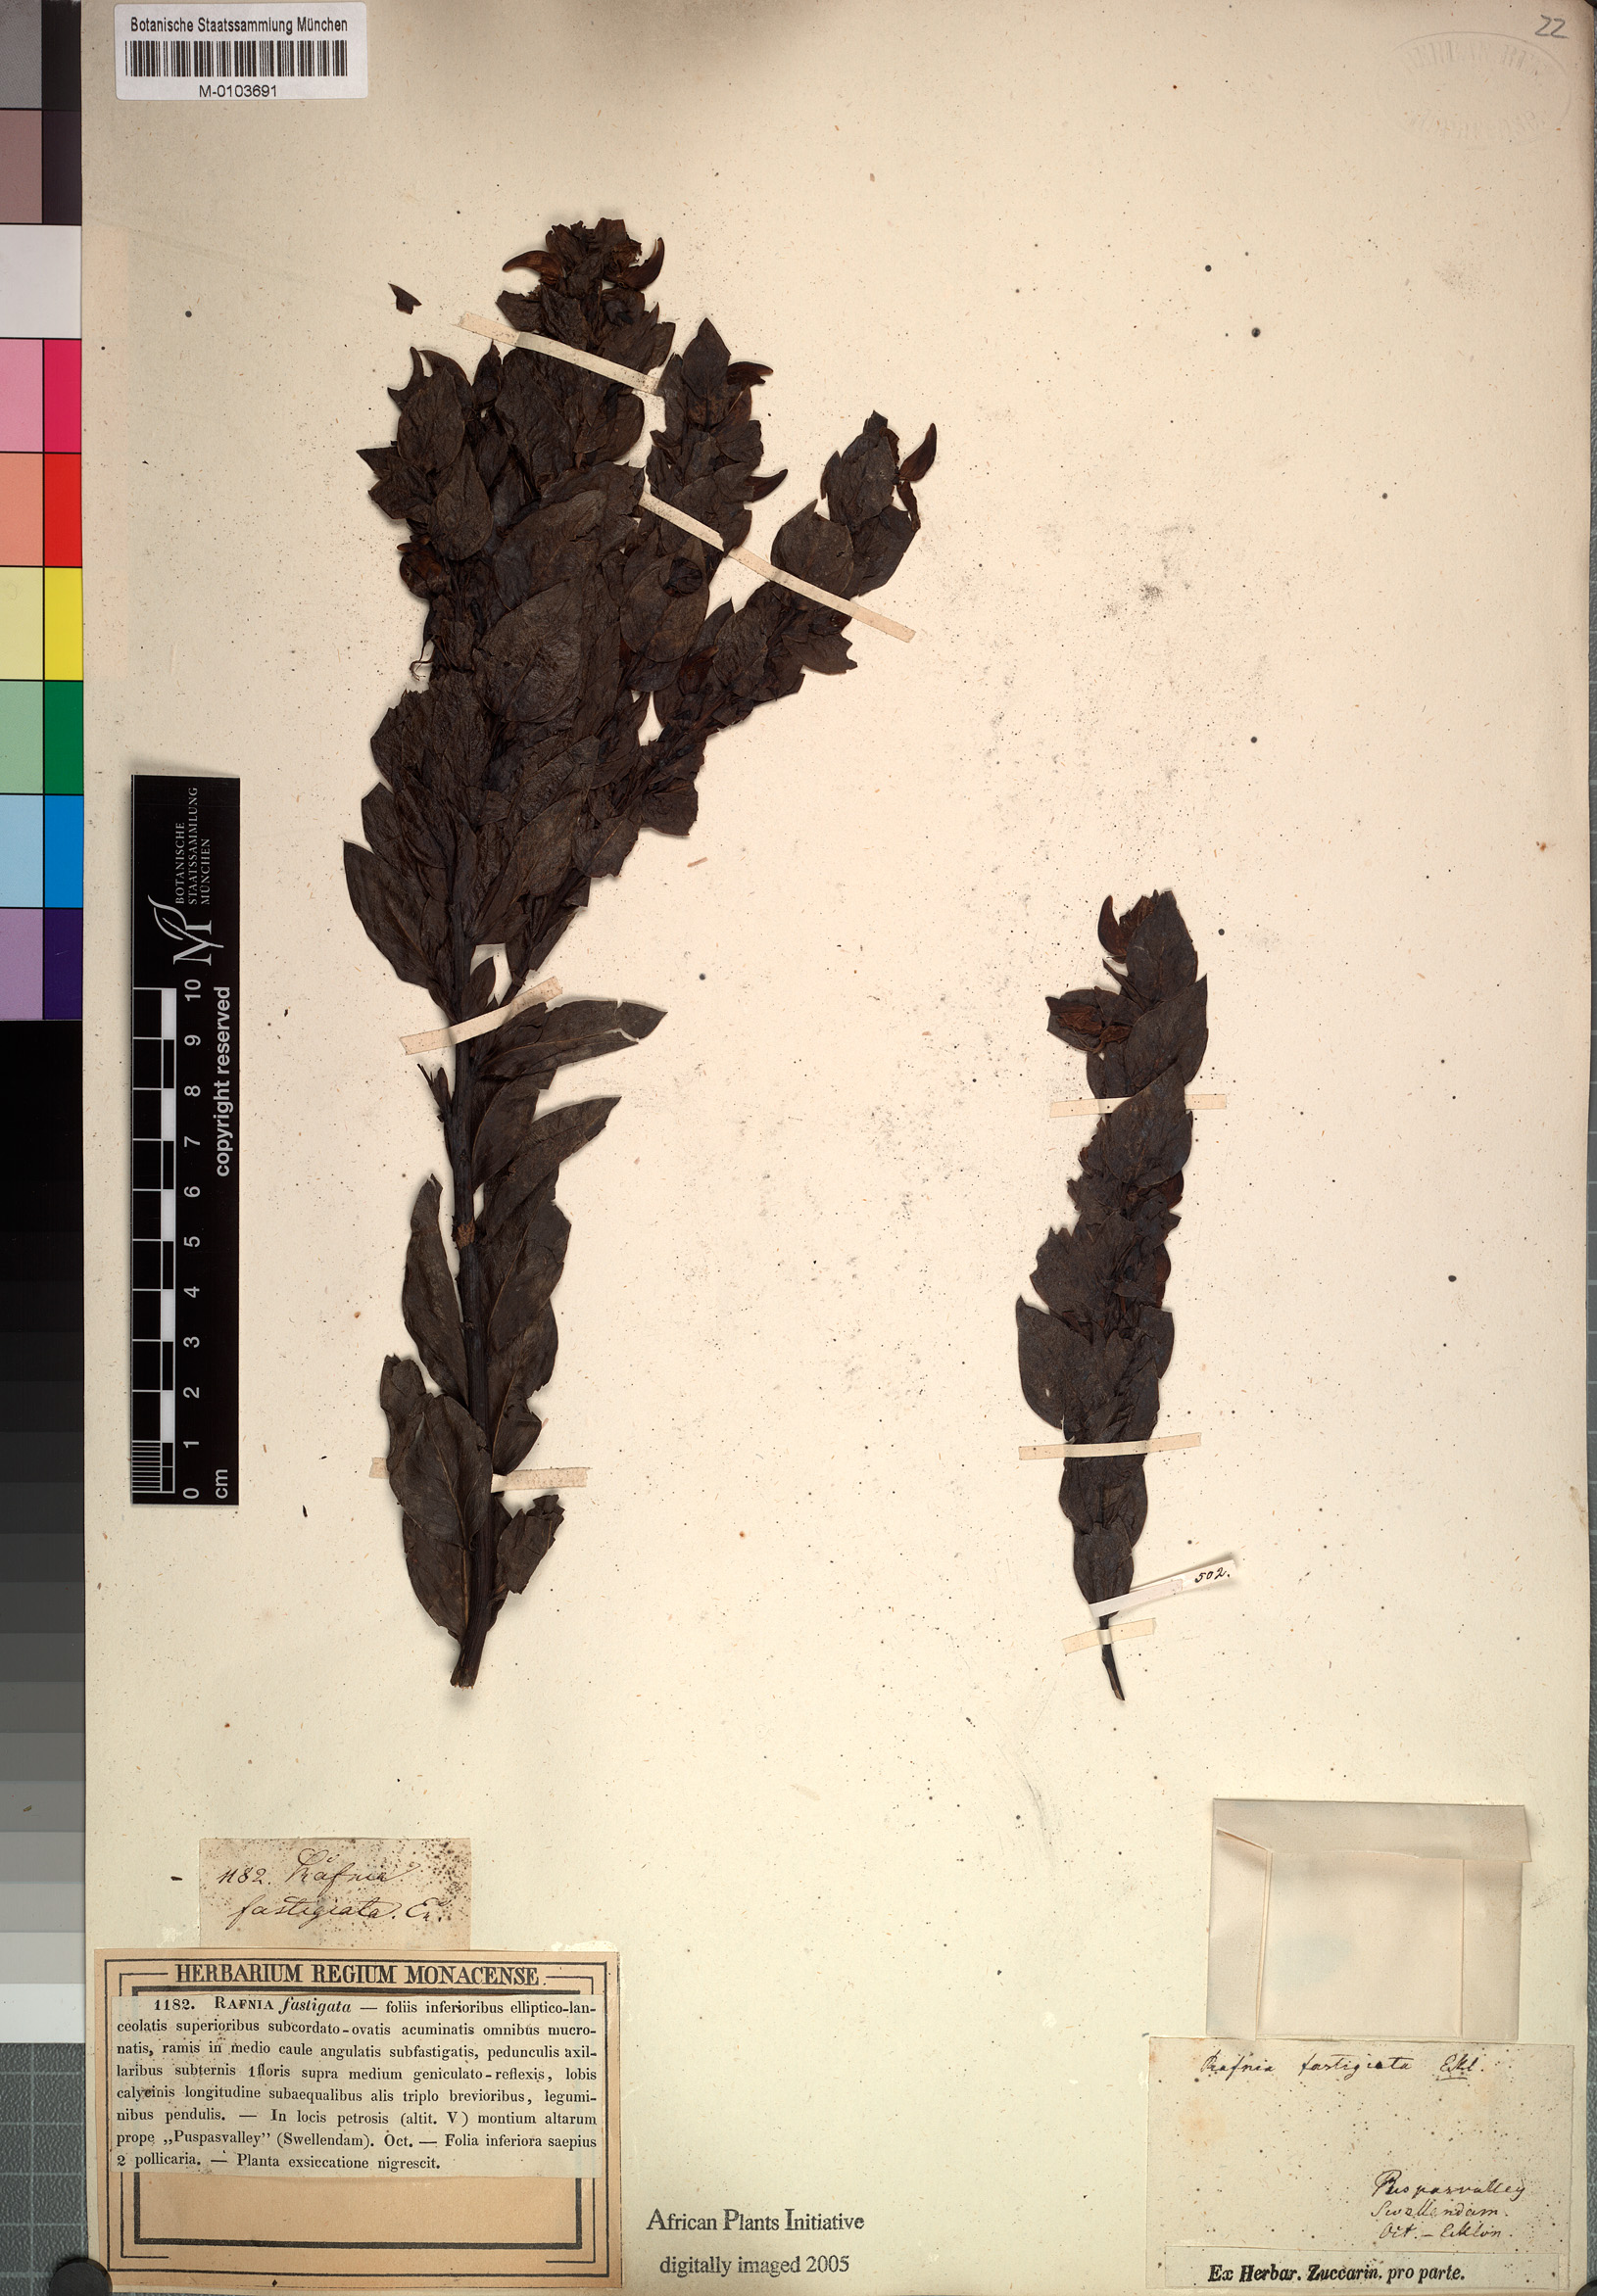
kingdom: Plantae
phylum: Tracheophyta
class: Magnoliopsida
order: Fabales
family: Fabaceae
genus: Rafnia
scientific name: Rafnia triflora
